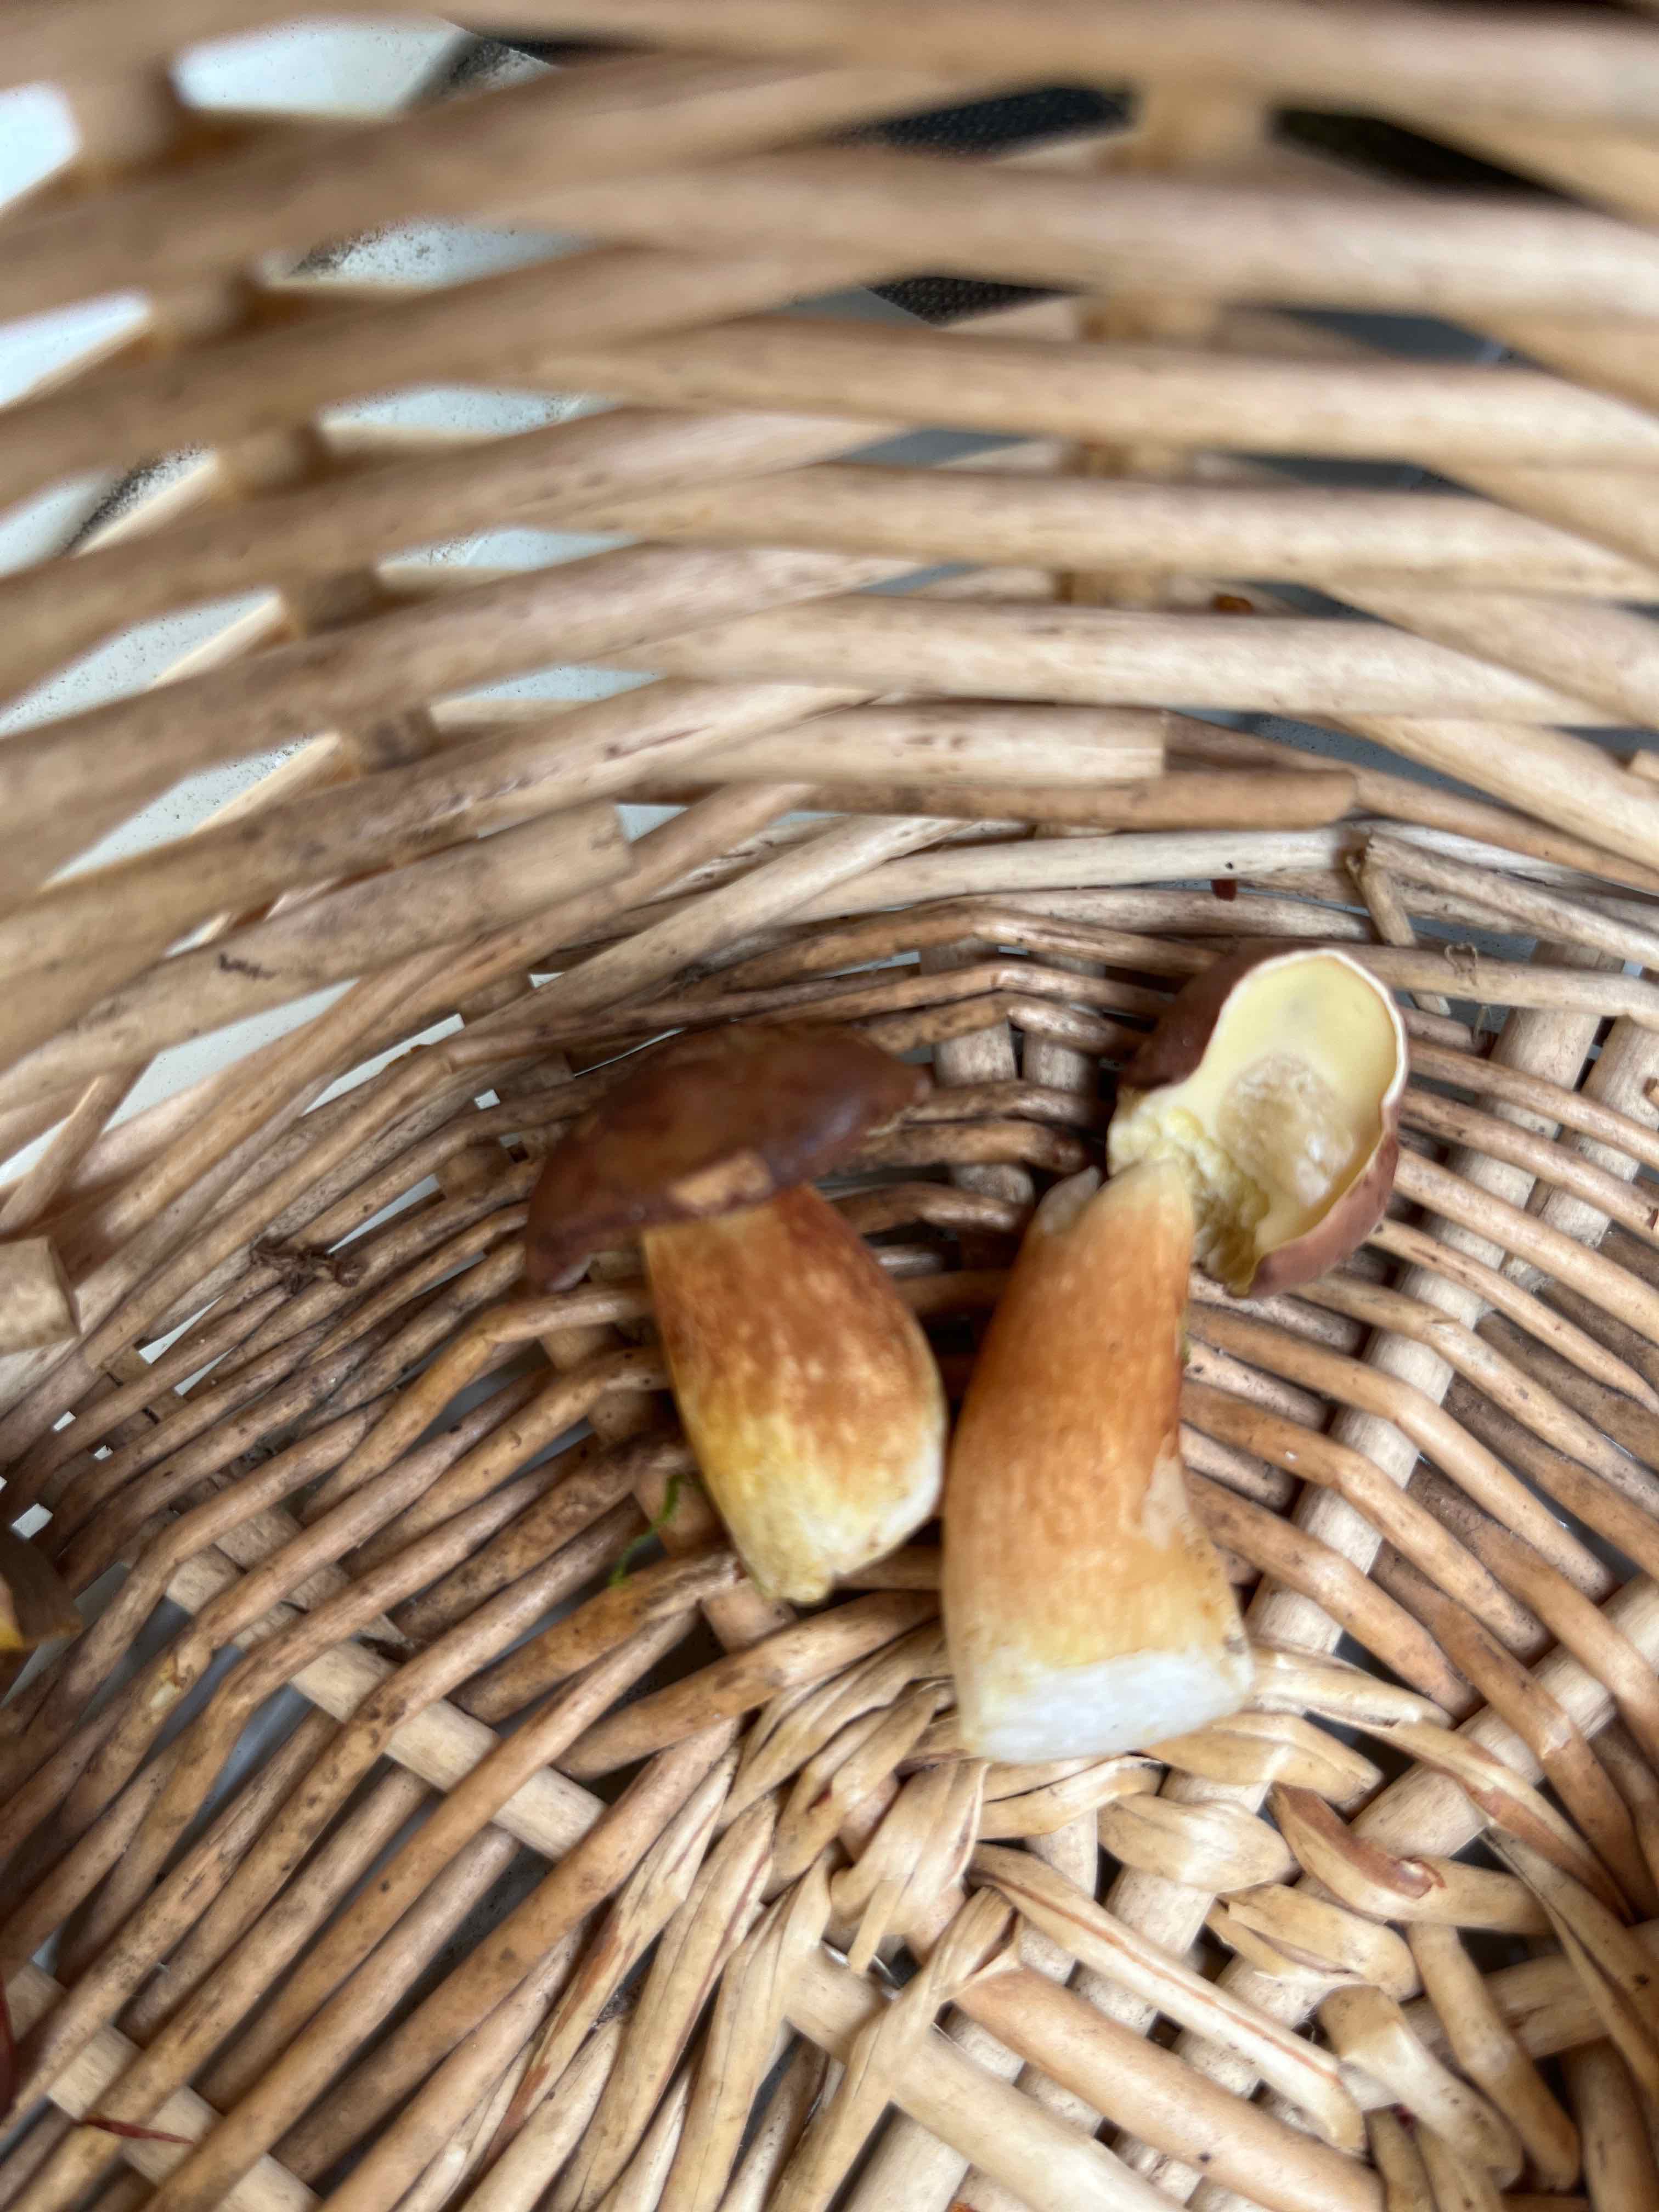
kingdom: Fungi
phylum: Basidiomycota
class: Agaricomycetes
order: Boletales
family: Boletaceae
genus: Imleria
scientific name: Imleria badia
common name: brunstokket rørhat
